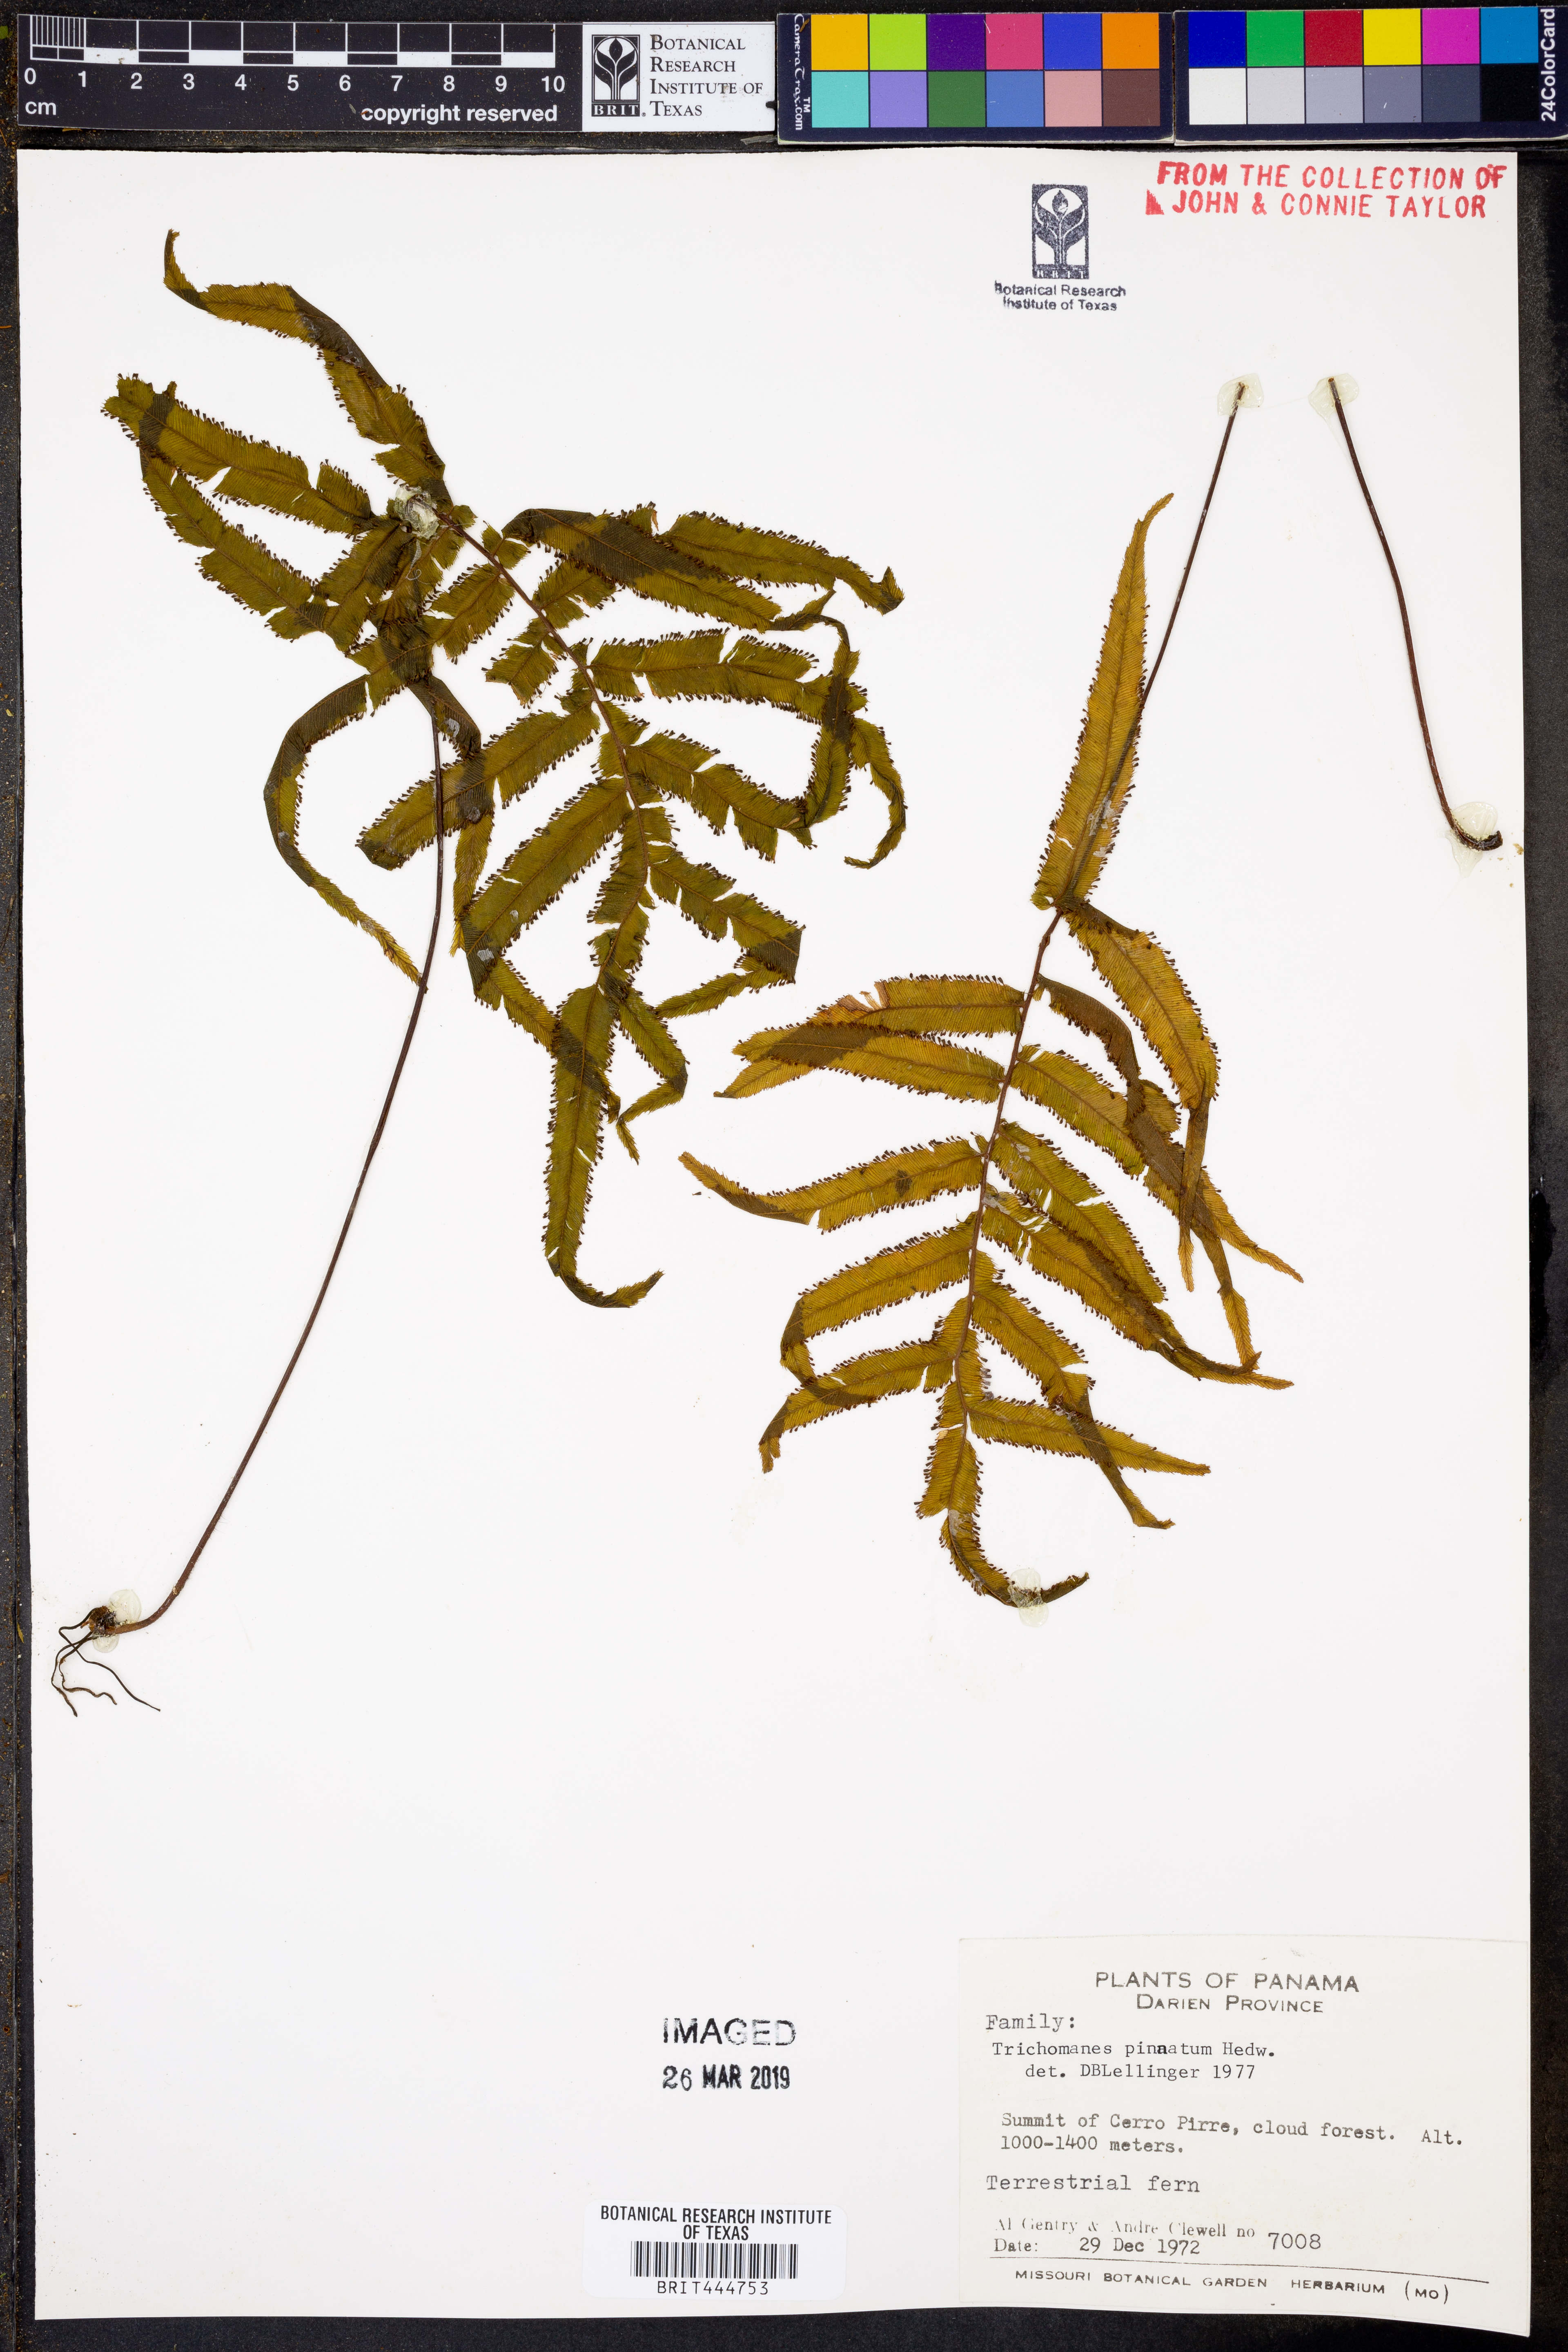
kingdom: Plantae
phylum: Tracheophyta
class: Polypodiopsida
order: Hymenophyllales
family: Hymenophyllaceae
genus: Trichomanes
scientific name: Trichomanes pinnatum
